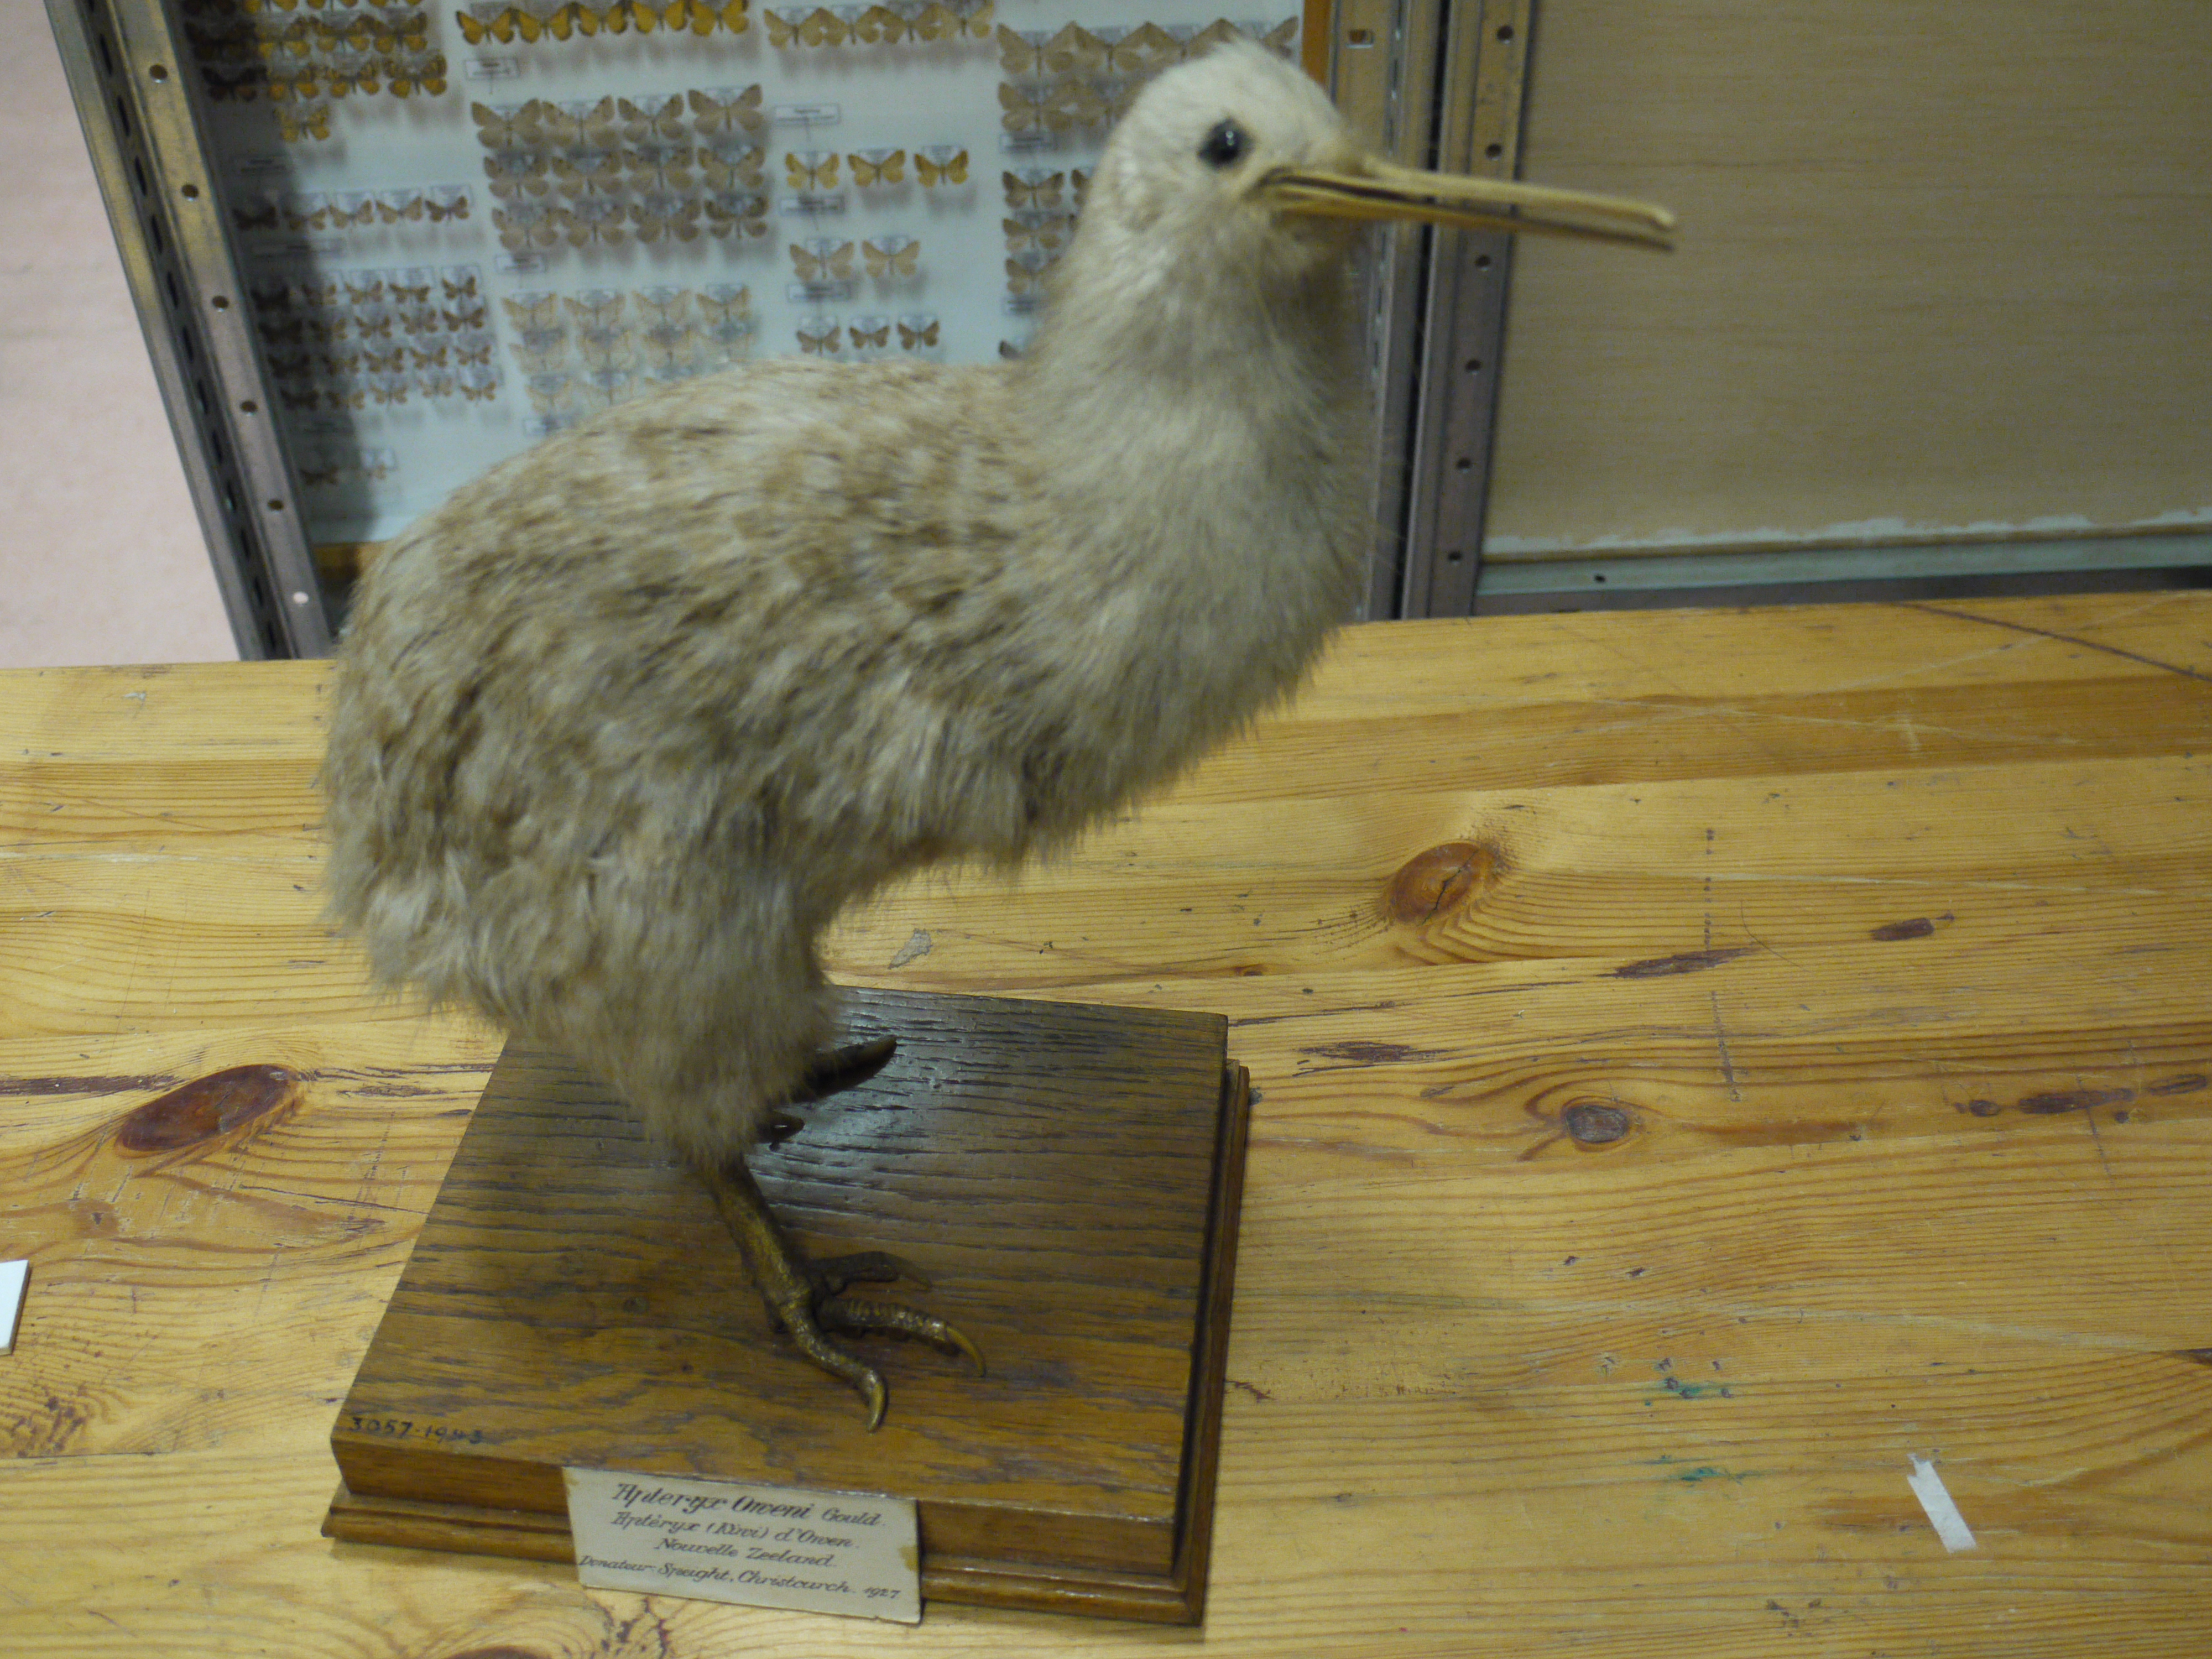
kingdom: Animalia
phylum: Chordata
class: Aves
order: Apterygiformes
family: Apterygidae
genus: Apteryx
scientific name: Apteryx owenii
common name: Little spotted kiwi
